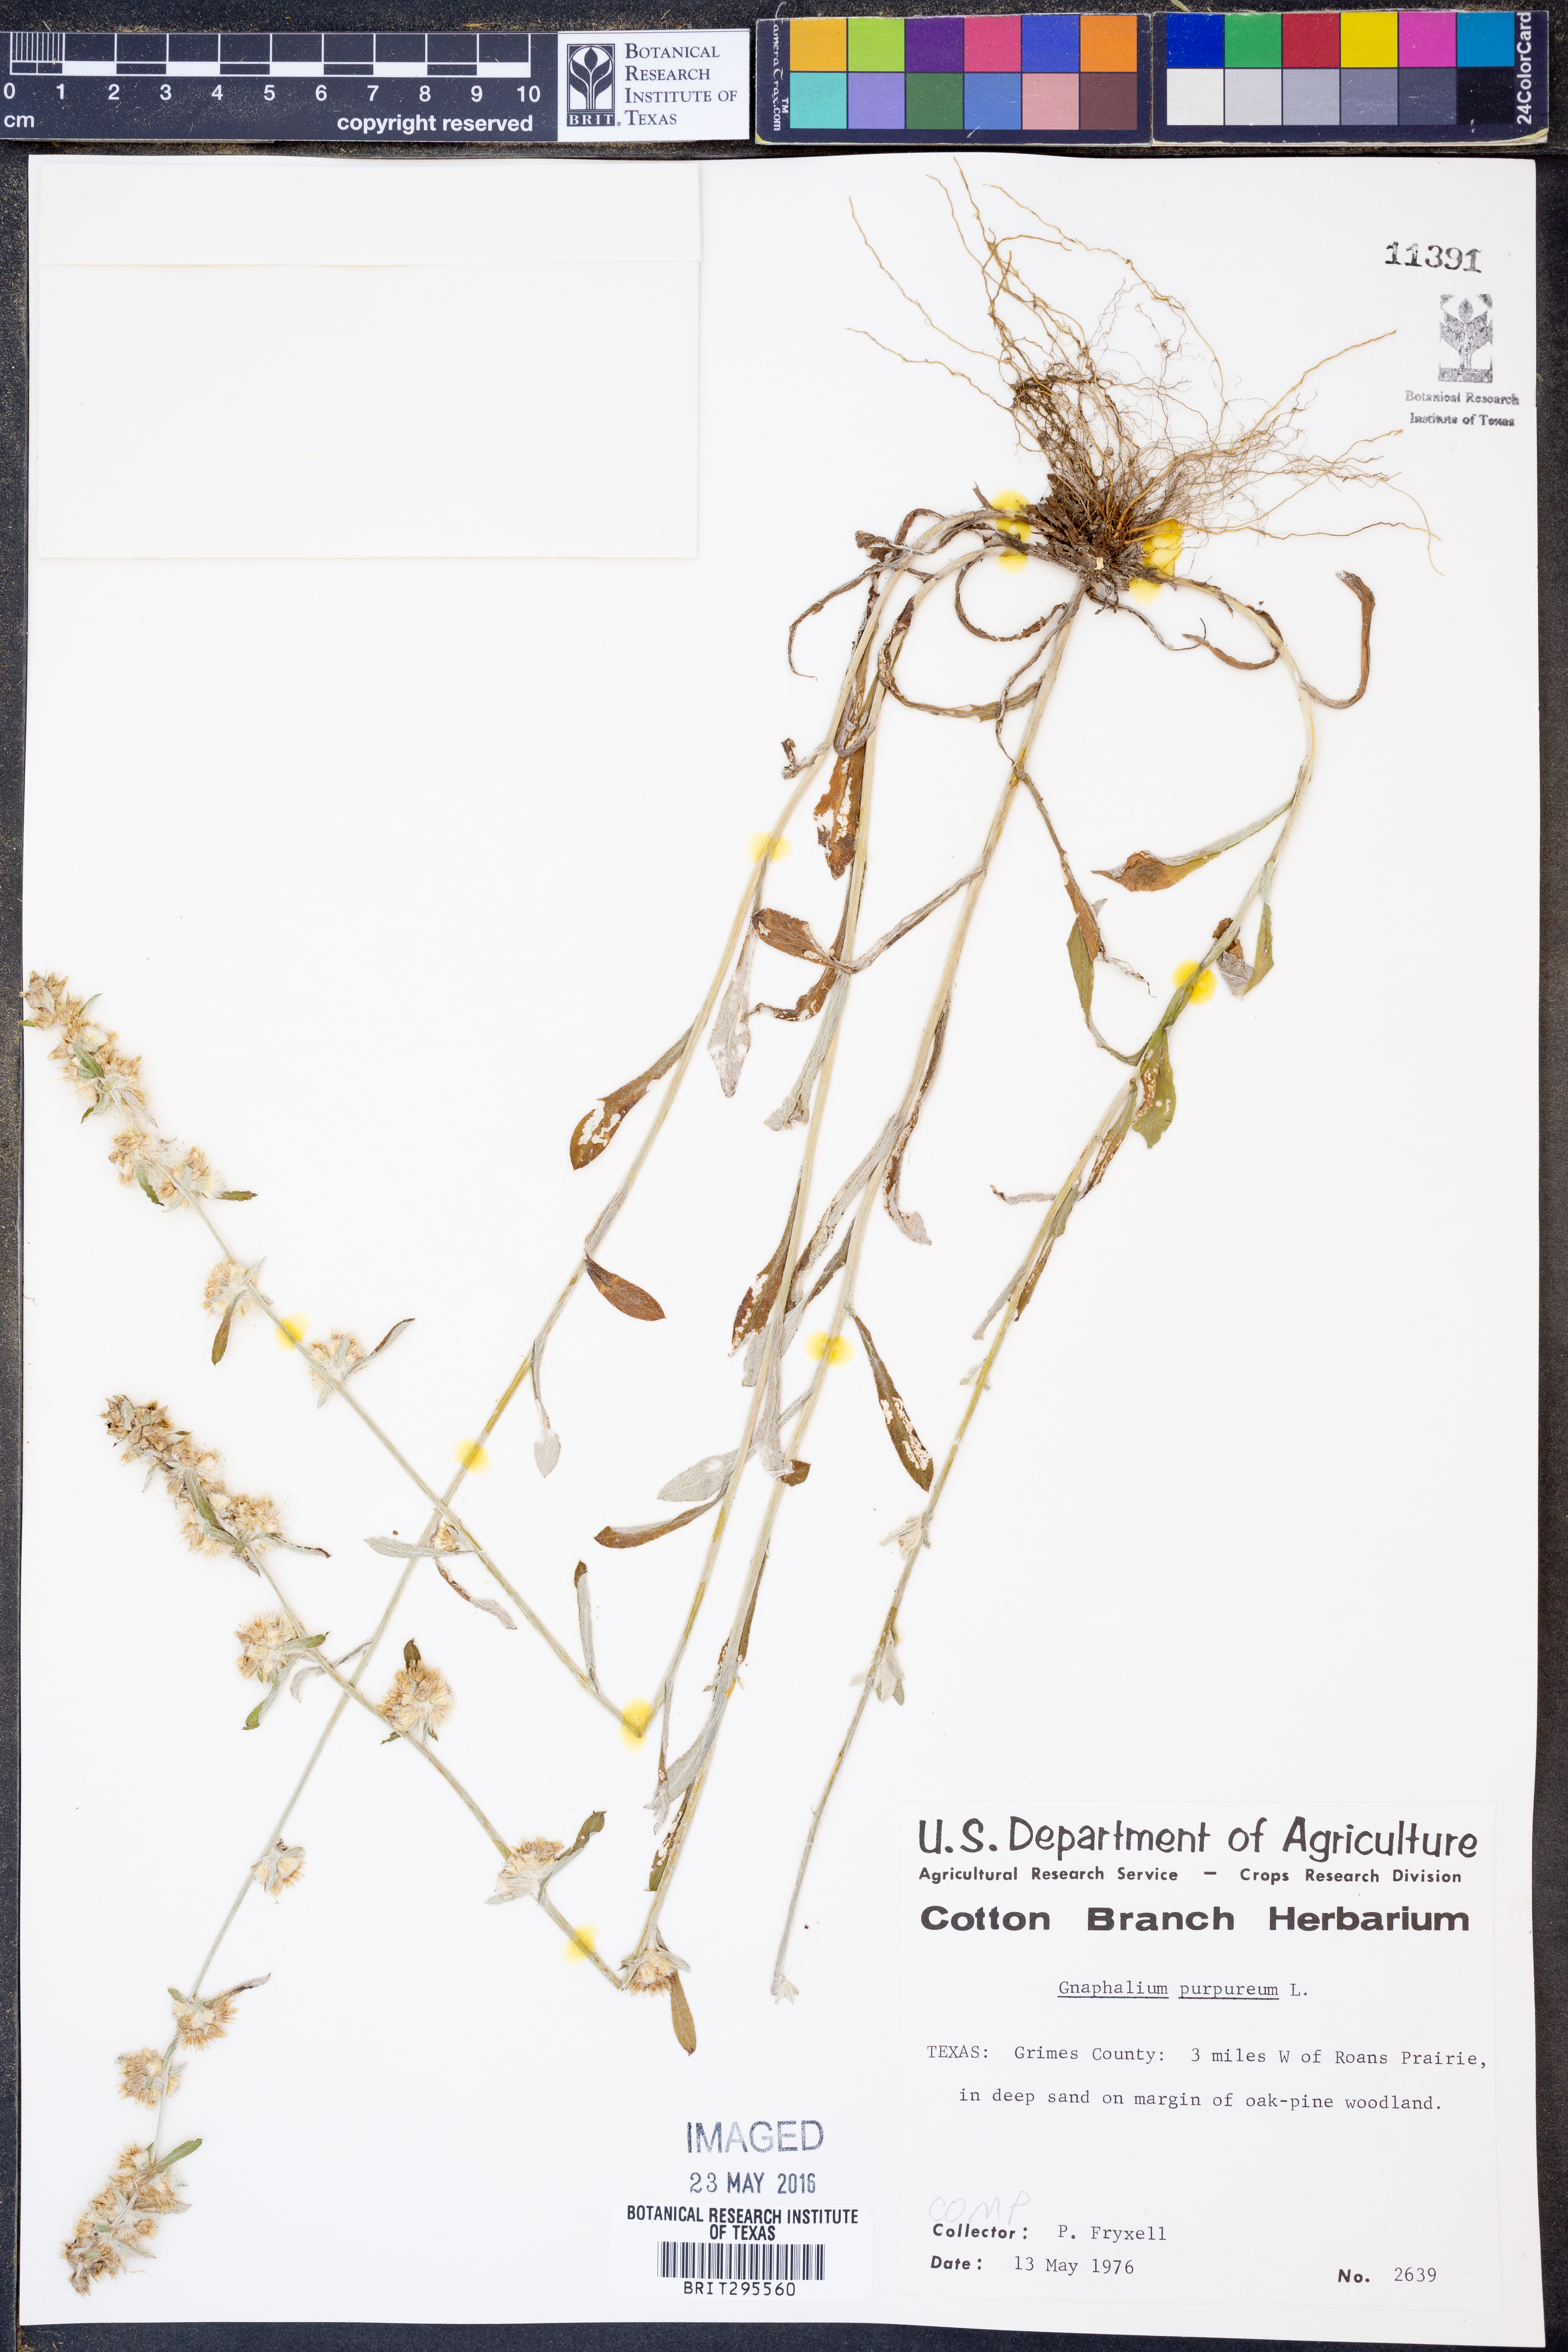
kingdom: Plantae
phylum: Tracheophyta
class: Magnoliopsida
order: Asterales
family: Asteraceae
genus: Gamochaeta
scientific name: Gamochaeta purpurea
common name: Purple cudweed
